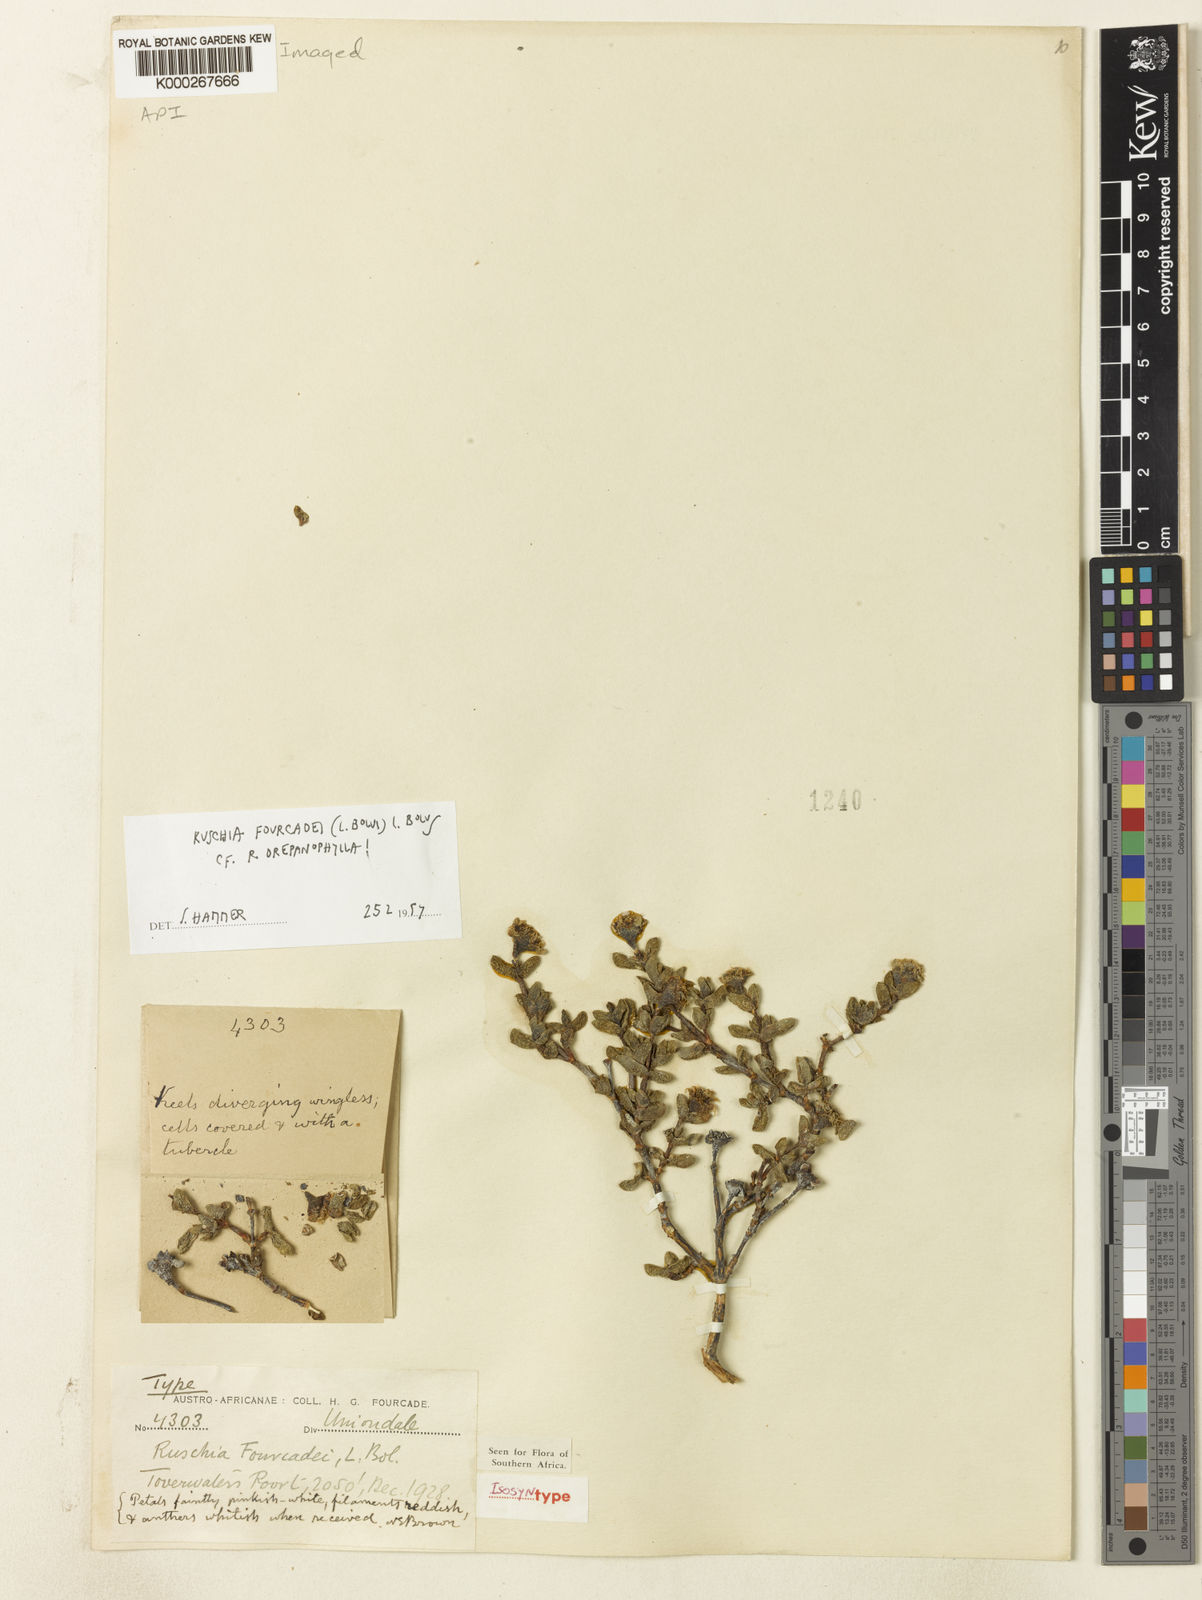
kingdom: Plantae
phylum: Tracheophyta
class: Magnoliopsida
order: Caryophyllales
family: Aizoaceae
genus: Ruschia
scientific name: Ruschia fourcadei
